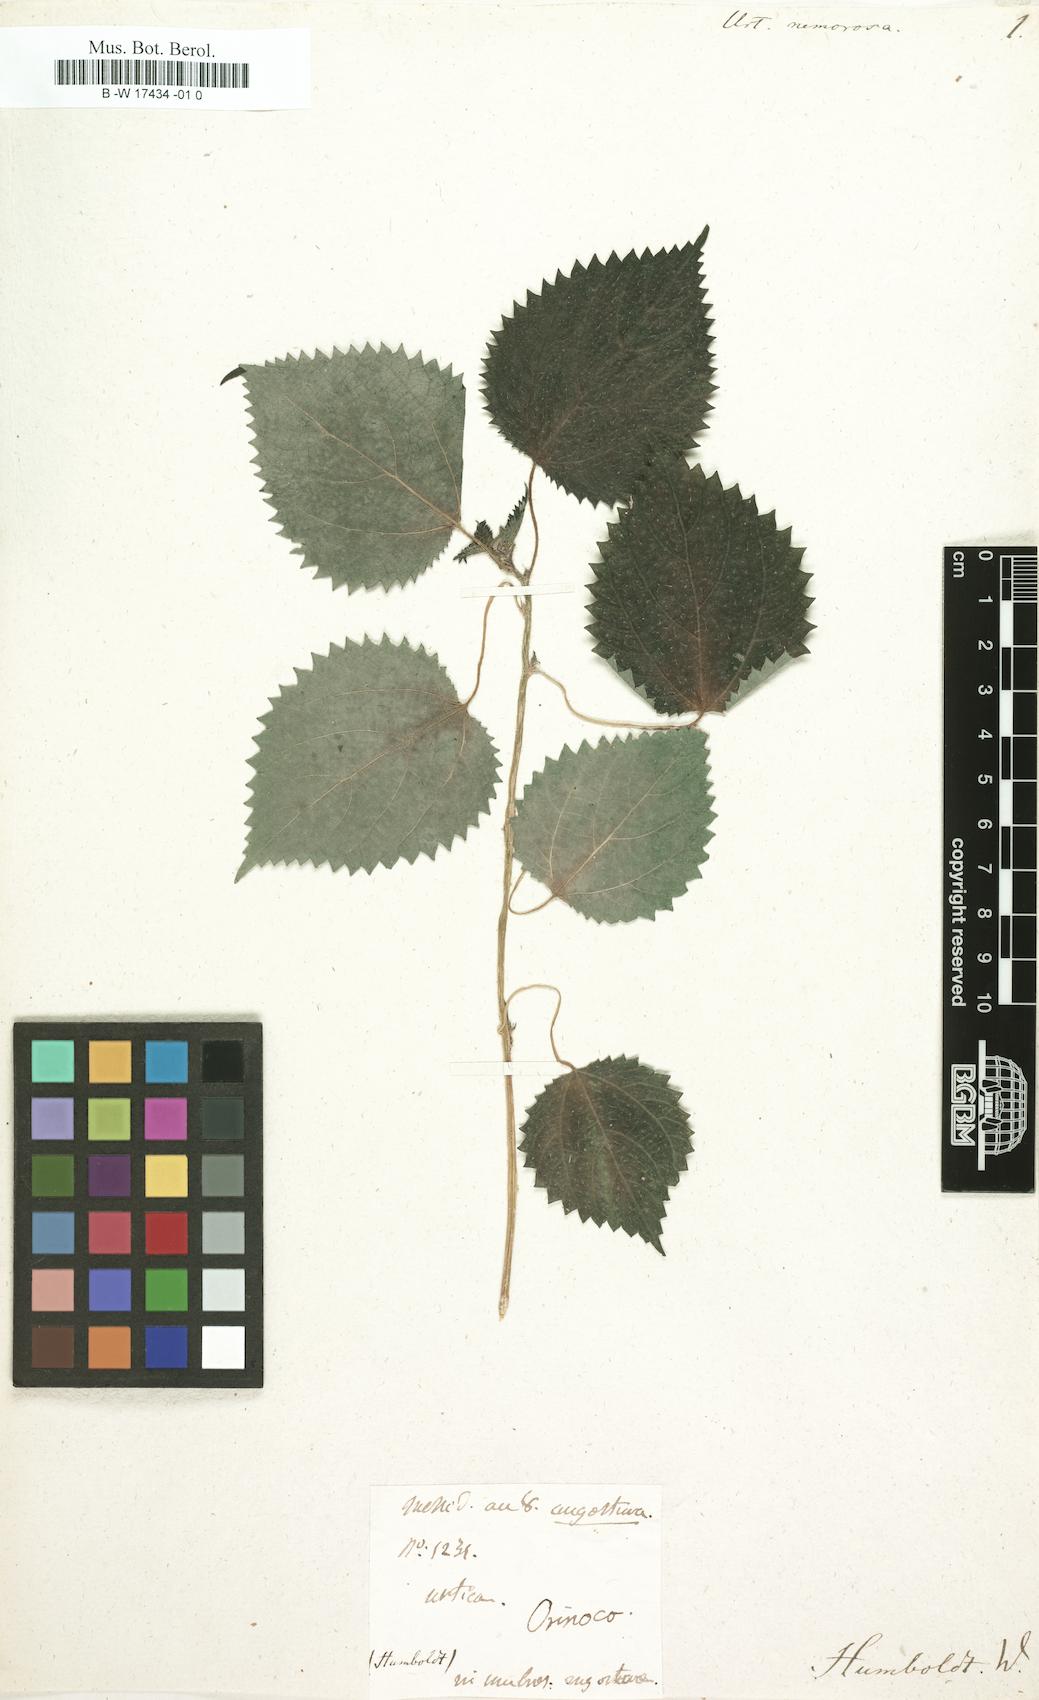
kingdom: Plantae
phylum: Tracheophyta
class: Magnoliopsida
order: Rosales
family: Urticaceae
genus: Laportea
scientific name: Laportea aestuans
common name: West indian woodnettle
